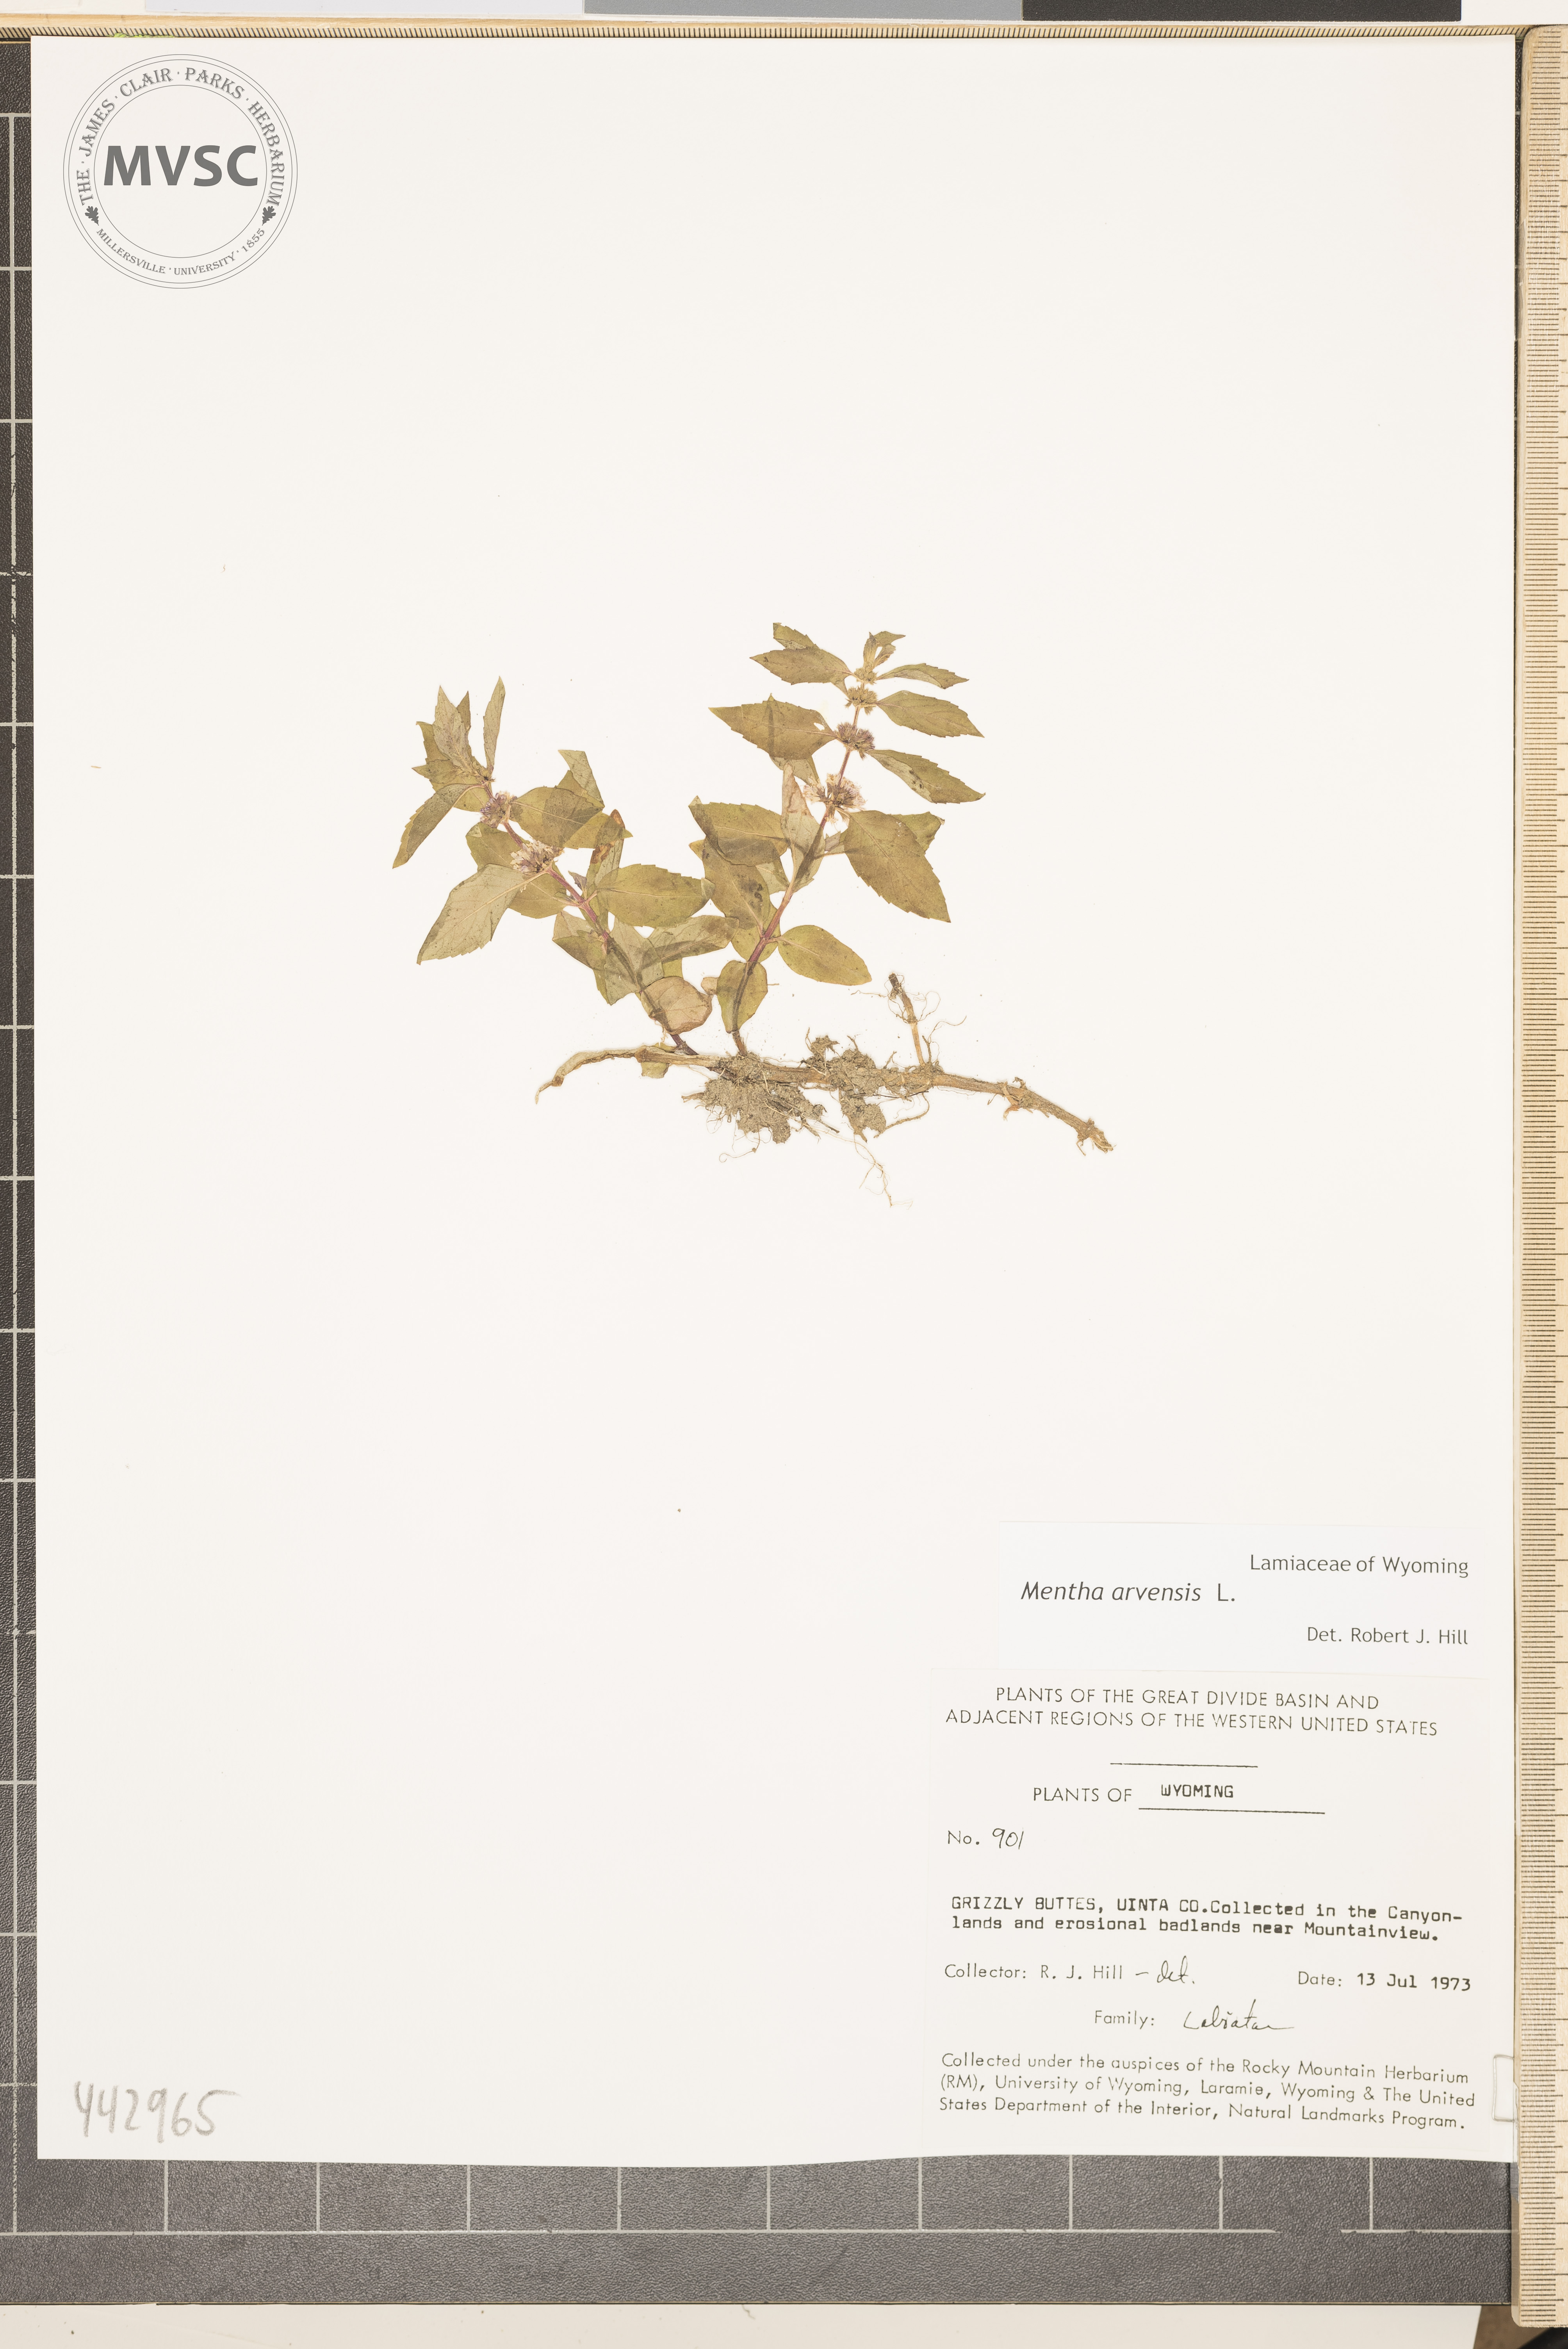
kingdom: Plantae
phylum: Tracheophyta
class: Magnoliopsida
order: Lamiales
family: Lamiaceae
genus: Mentha
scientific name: Mentha arvensis
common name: Corn mint
